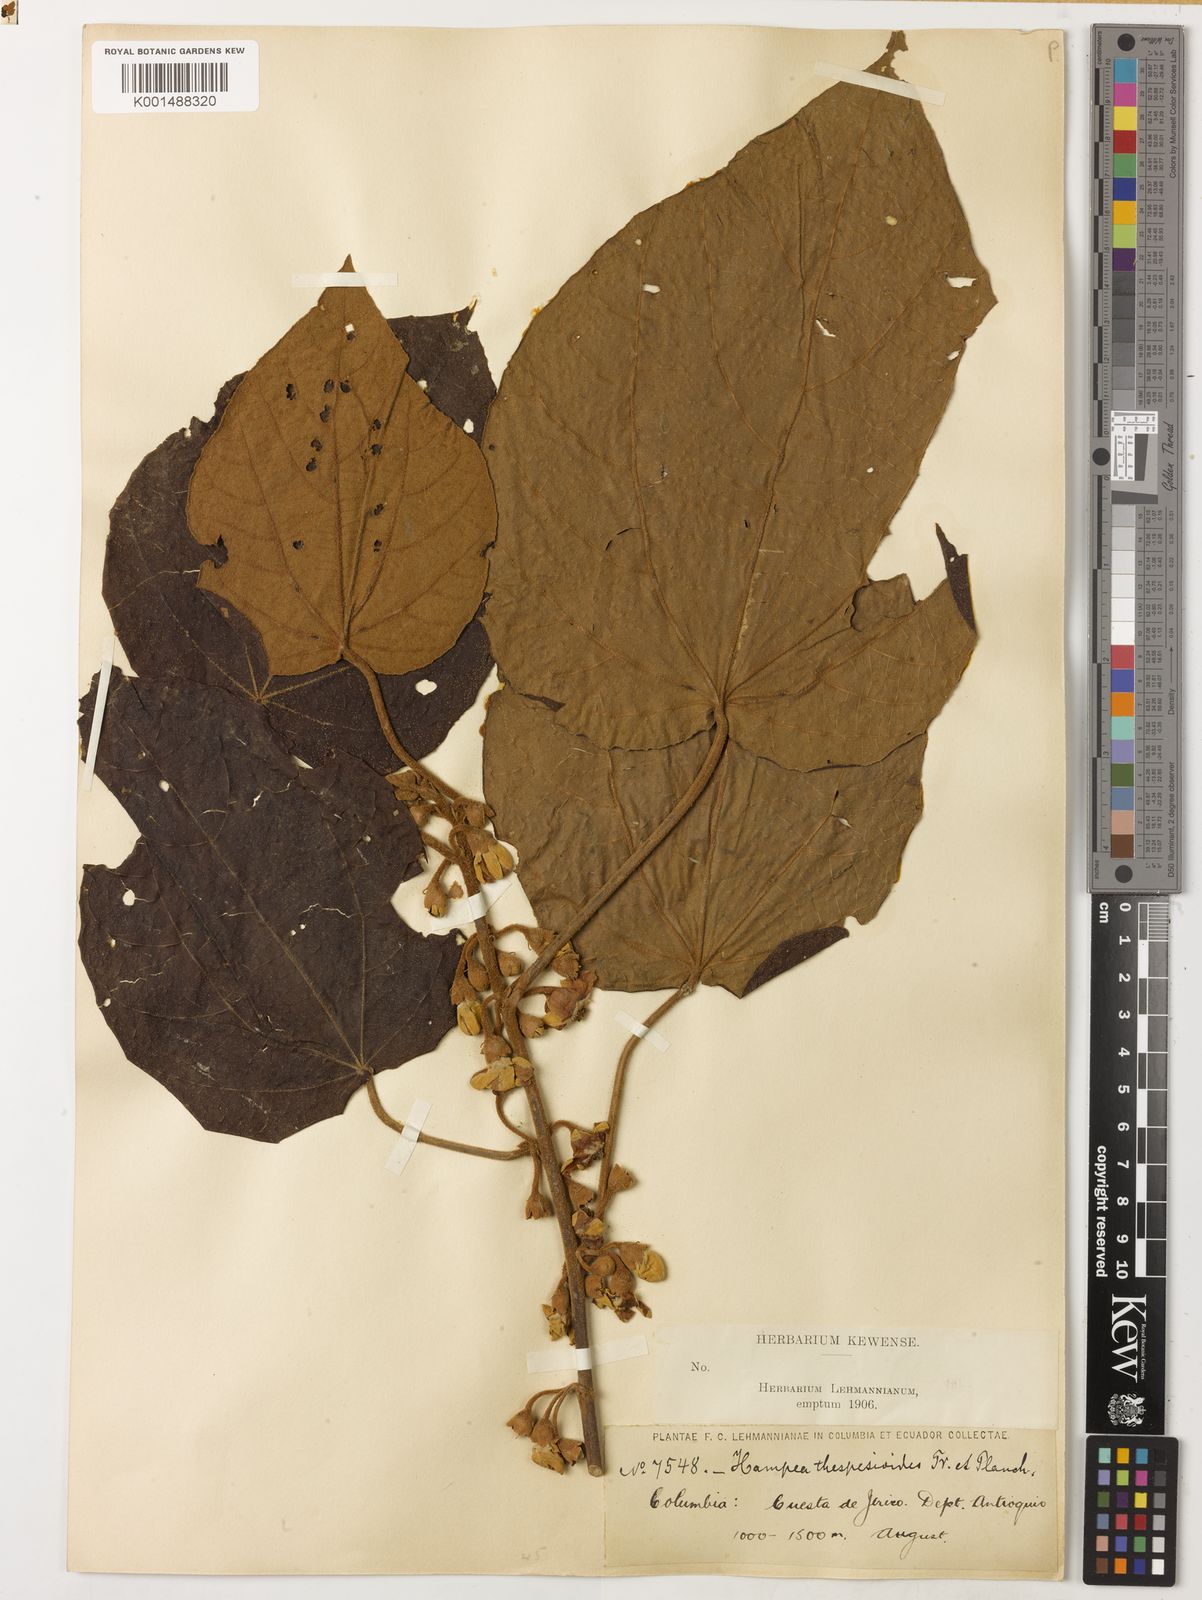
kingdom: Plantae
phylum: Tracheophyta
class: Magnoliopsida
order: Malvales
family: Malvaceae
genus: Hampea
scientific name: Hampea thespesioides
